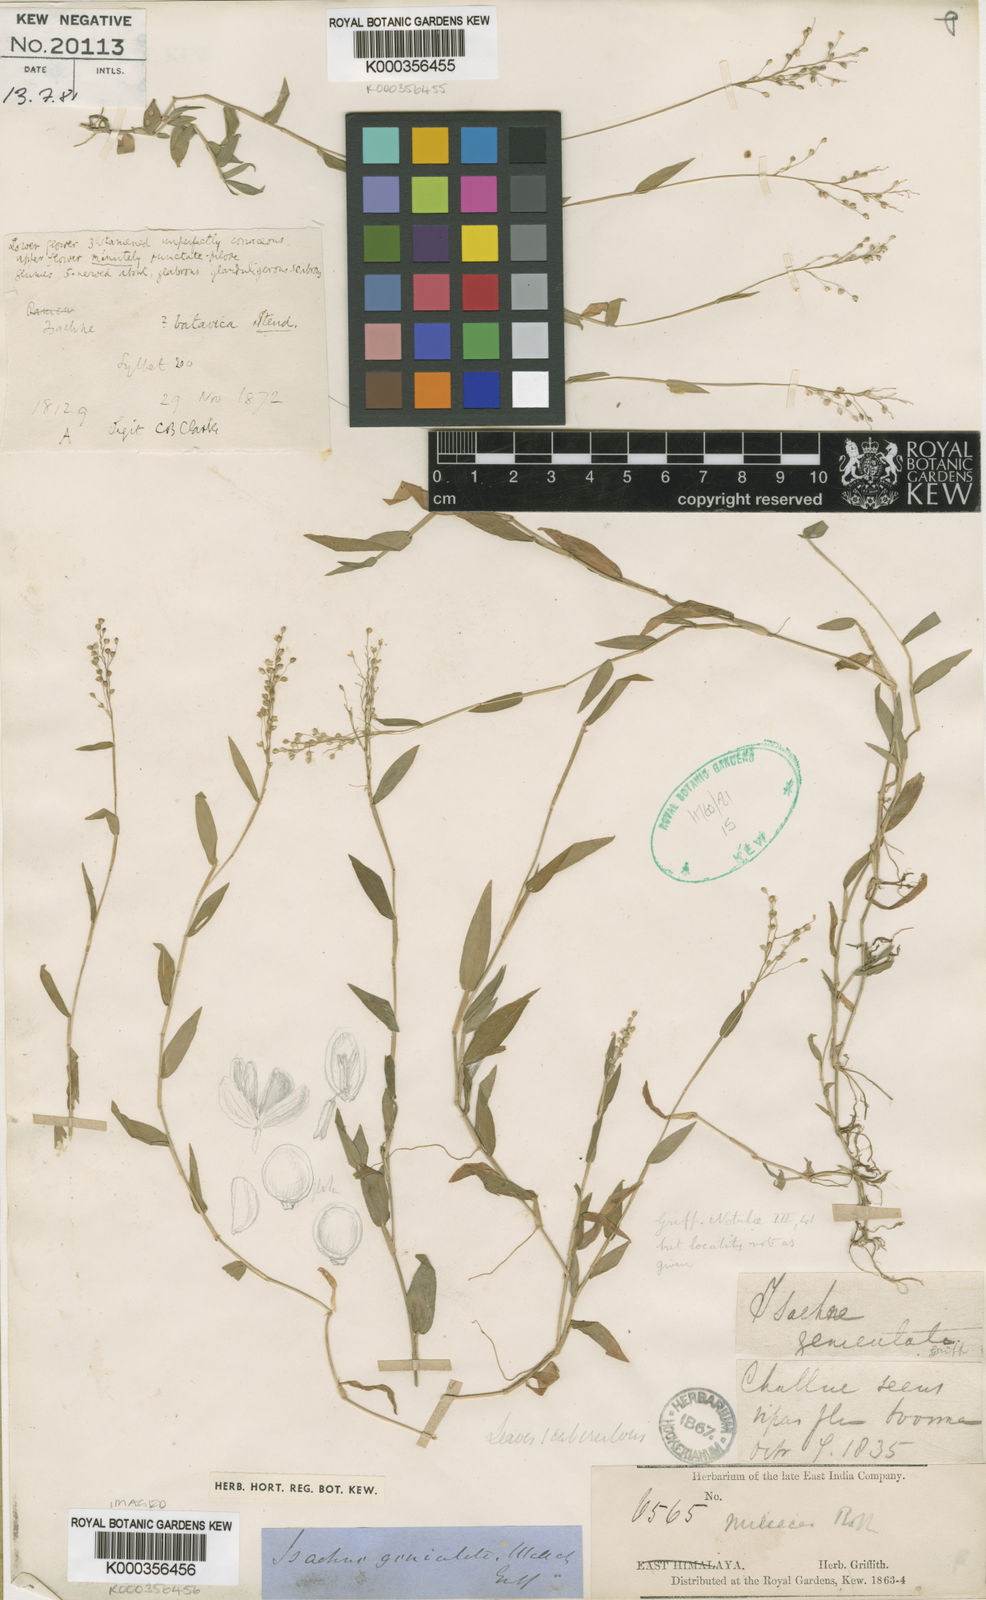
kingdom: Plantae
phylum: Tracheophyta
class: Liliopsida
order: Poales
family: Poaceae
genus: Isachne
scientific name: Isachne globosa
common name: Swamp millet
